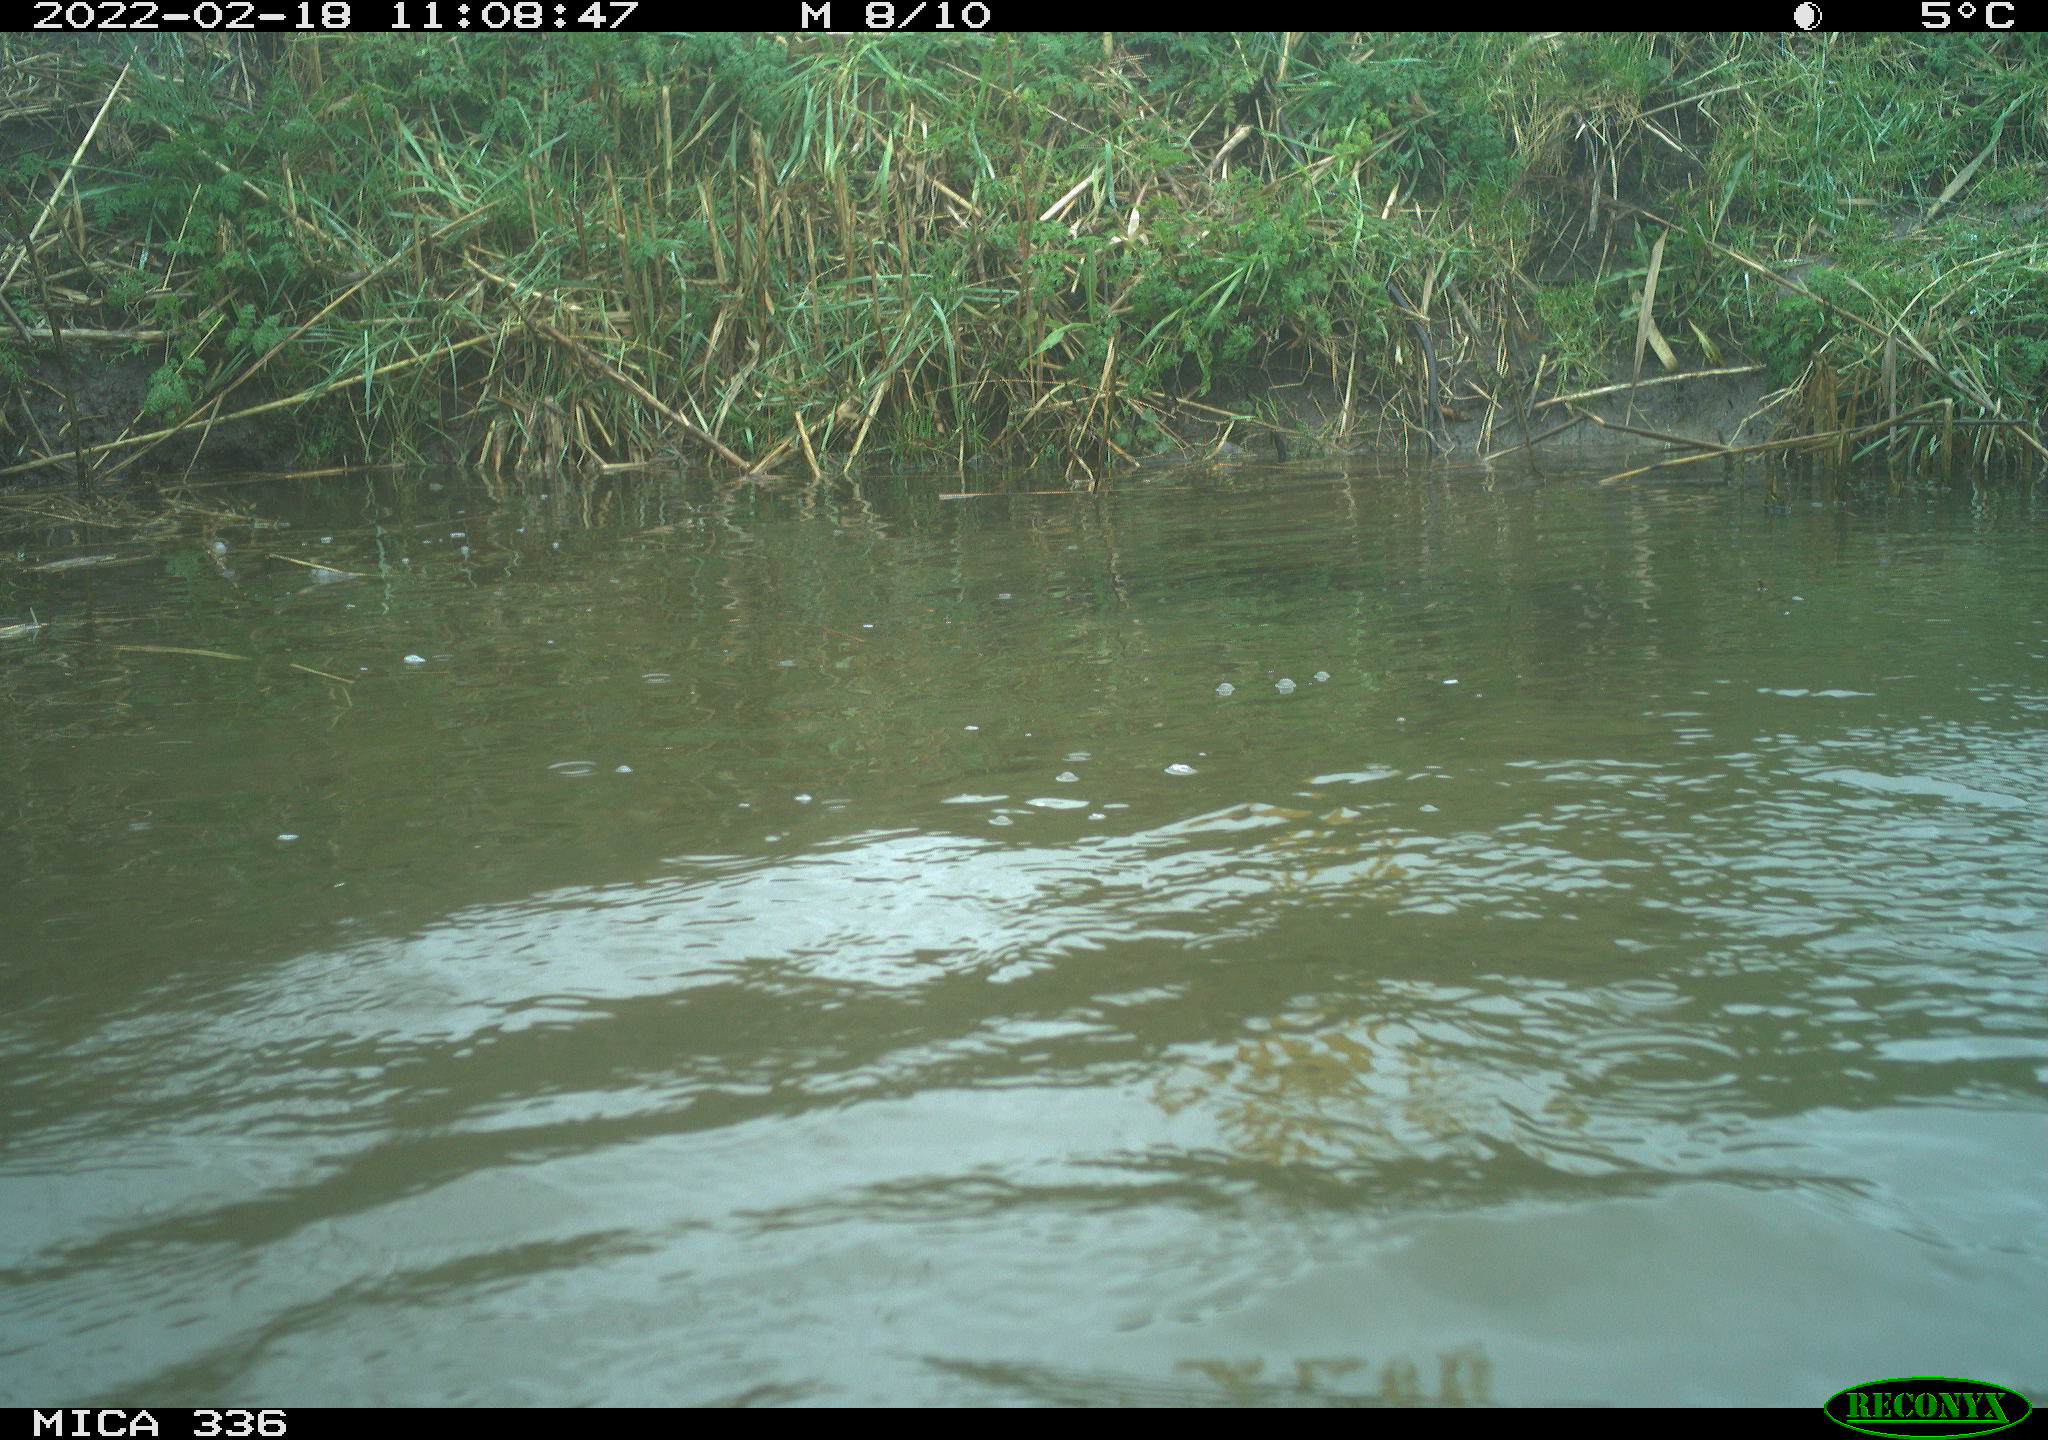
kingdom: Animalia
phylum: Chordata
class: Aves
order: Suliformes
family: Phalacrocoracidae
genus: Phalacrocorax
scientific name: Phalacrocorax carbo
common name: Great cormorant
